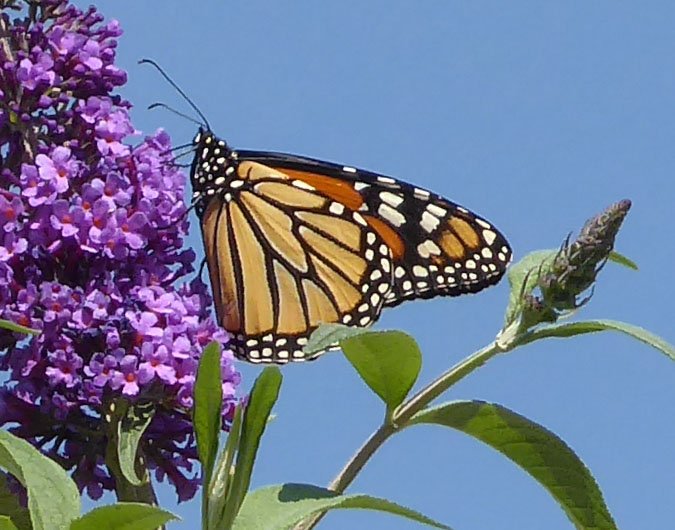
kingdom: Animalia
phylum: Arthropoda
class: Insecta
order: Lepidoptera
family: Nymphalidae
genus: Danaus
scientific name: Danaus plexippus
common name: Monarch
